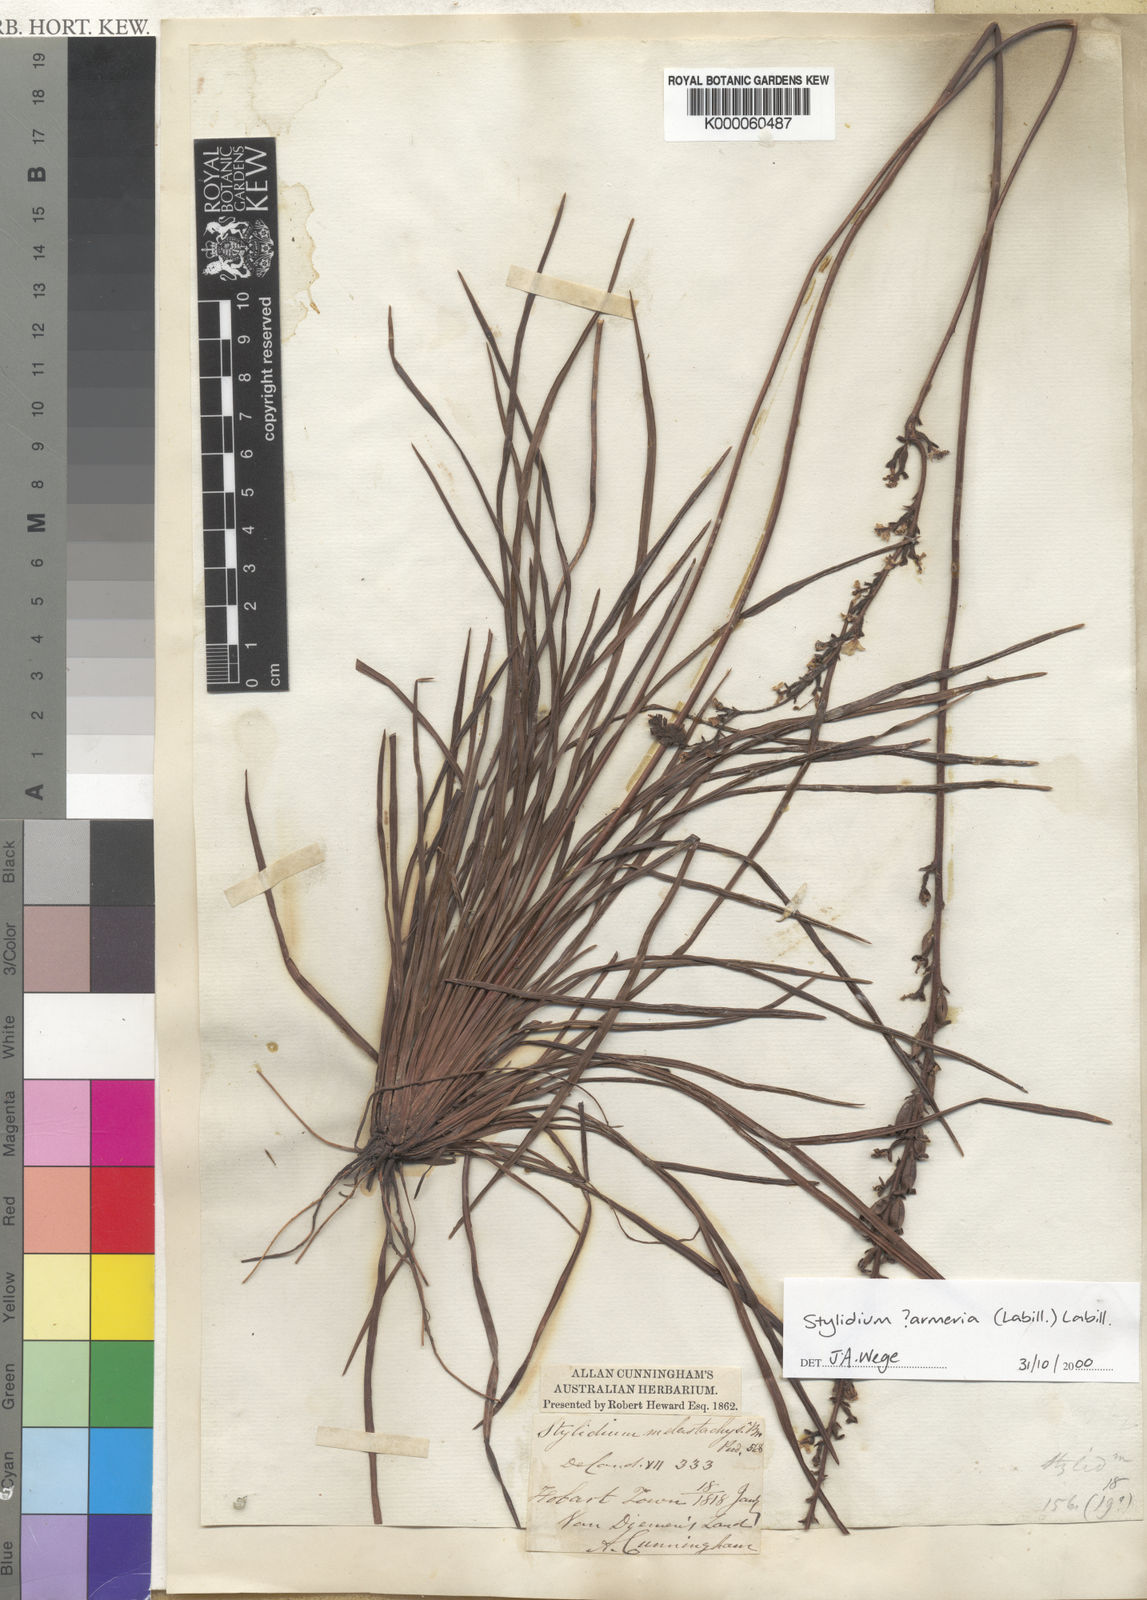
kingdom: Plantae
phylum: Tracheophyta
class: Magnoliopsida
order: Asterales
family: Stylidiaceae
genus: Stylidium
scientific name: Stylidium armeria
